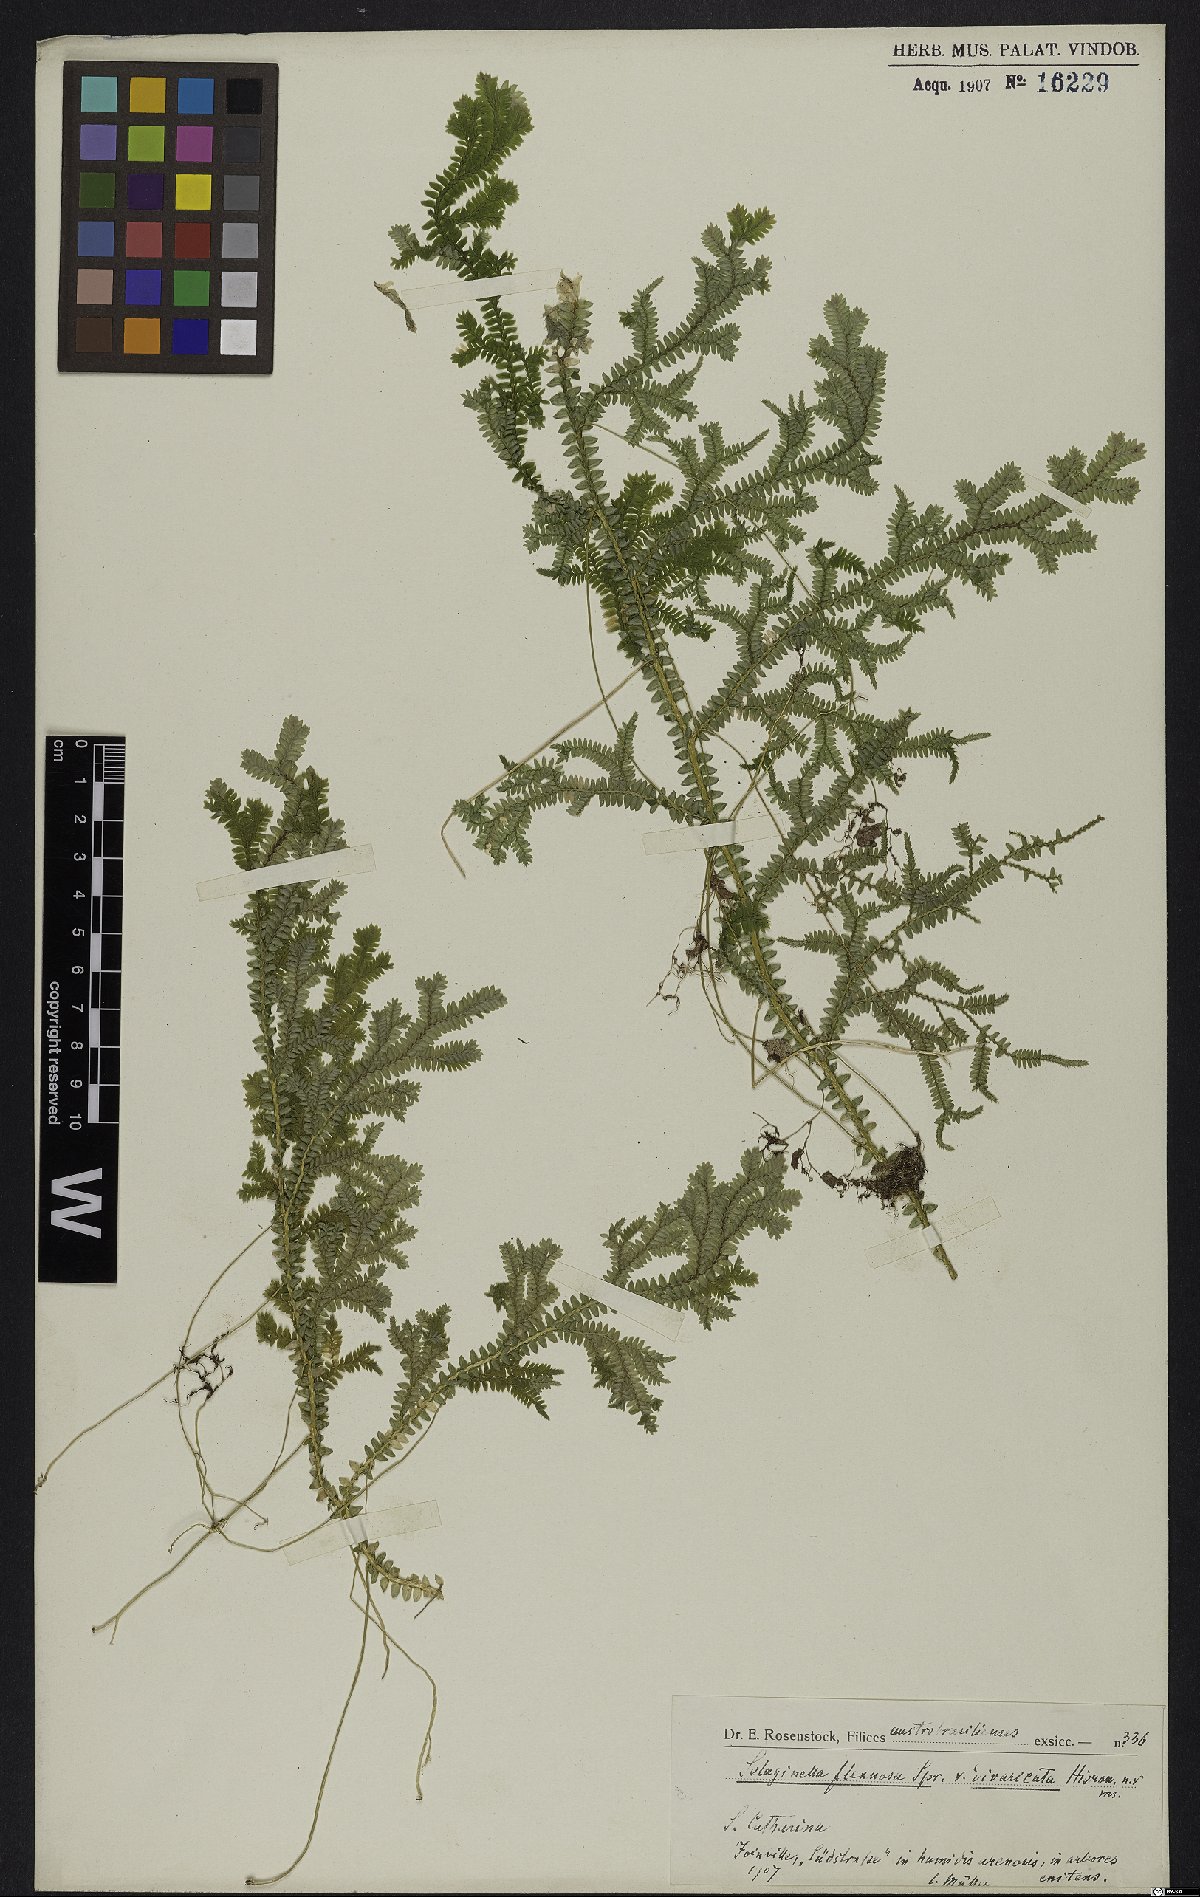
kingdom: Plantae
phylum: Tracheophyta
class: Lycopodiopsida
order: Selaginellales
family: Selaginellaceae
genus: Selaginella
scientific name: Selaginella flexuosa
